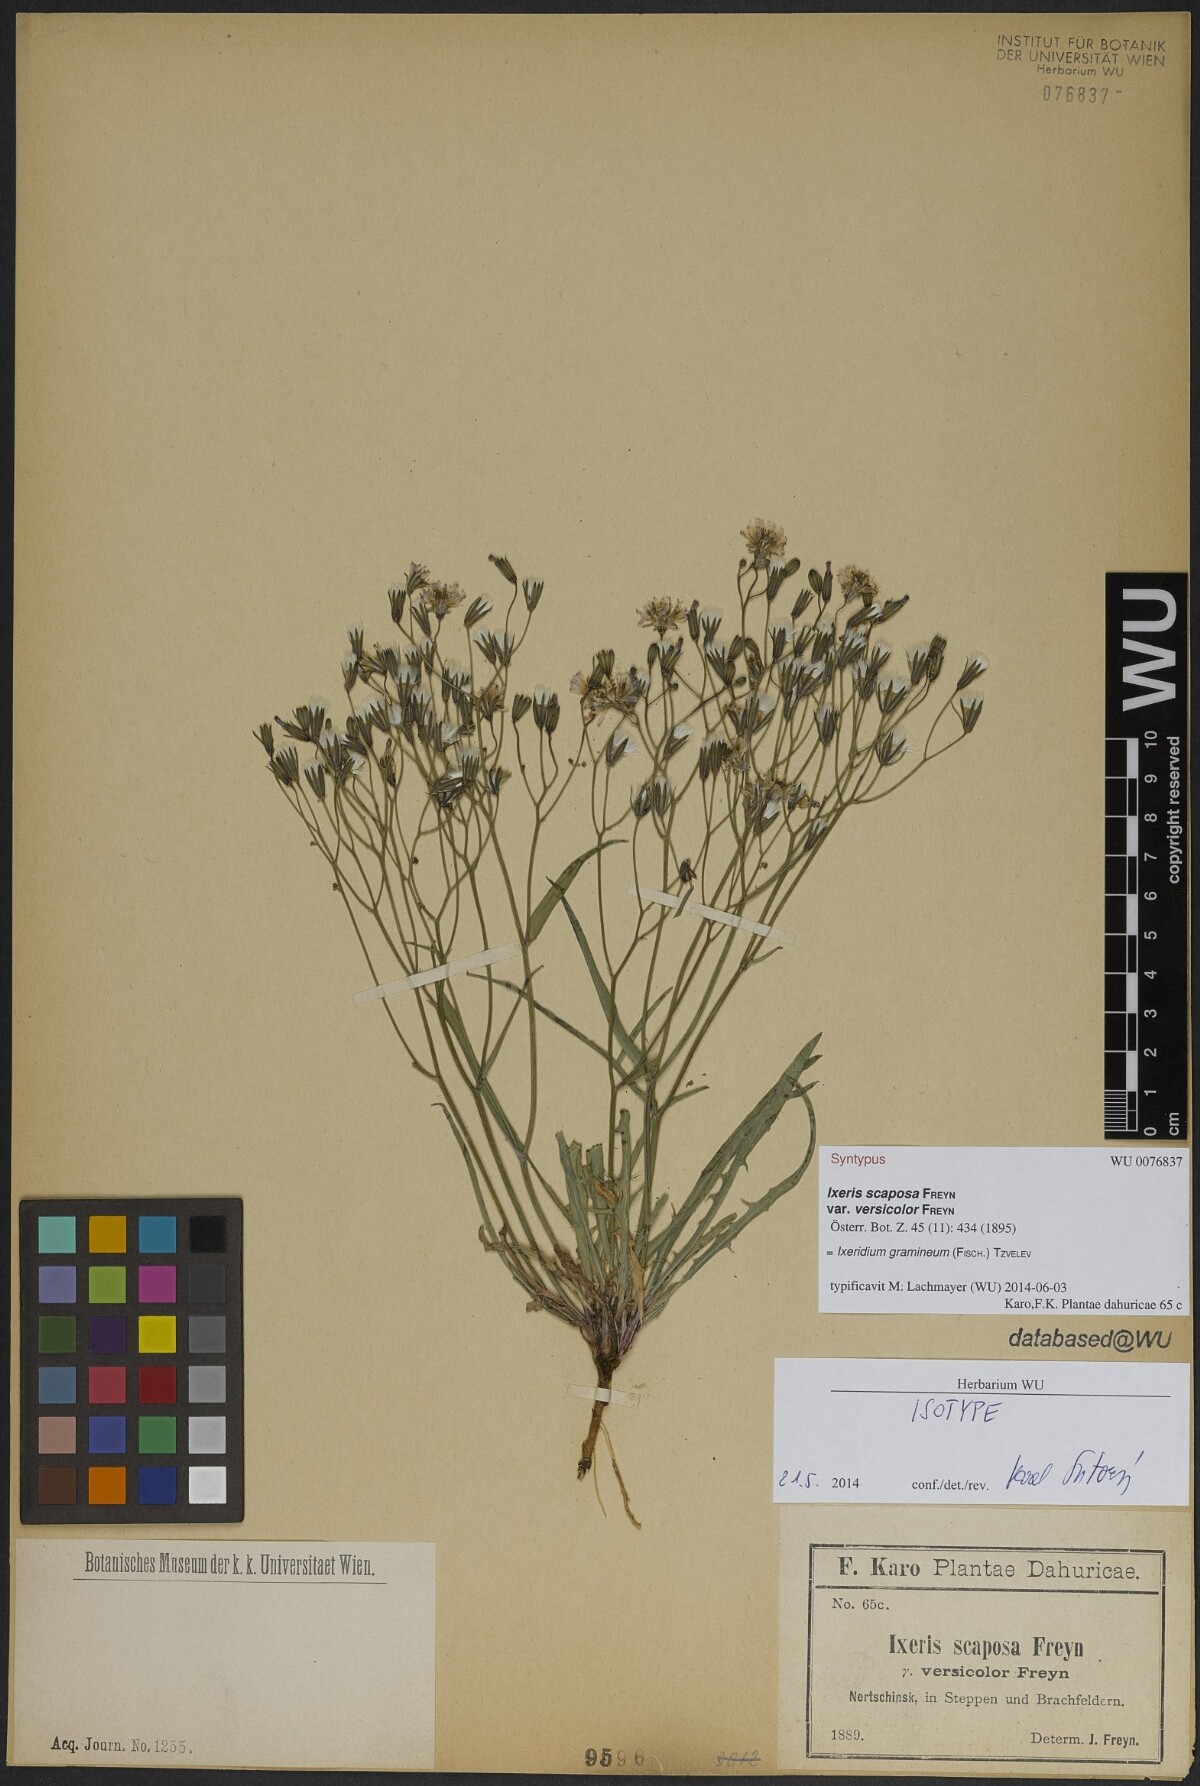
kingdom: Plantae
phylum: Tracheophyta
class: Magnoliopsida
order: Asterales
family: Asteraceae
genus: Ixeris
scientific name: Ixeris chinensis
